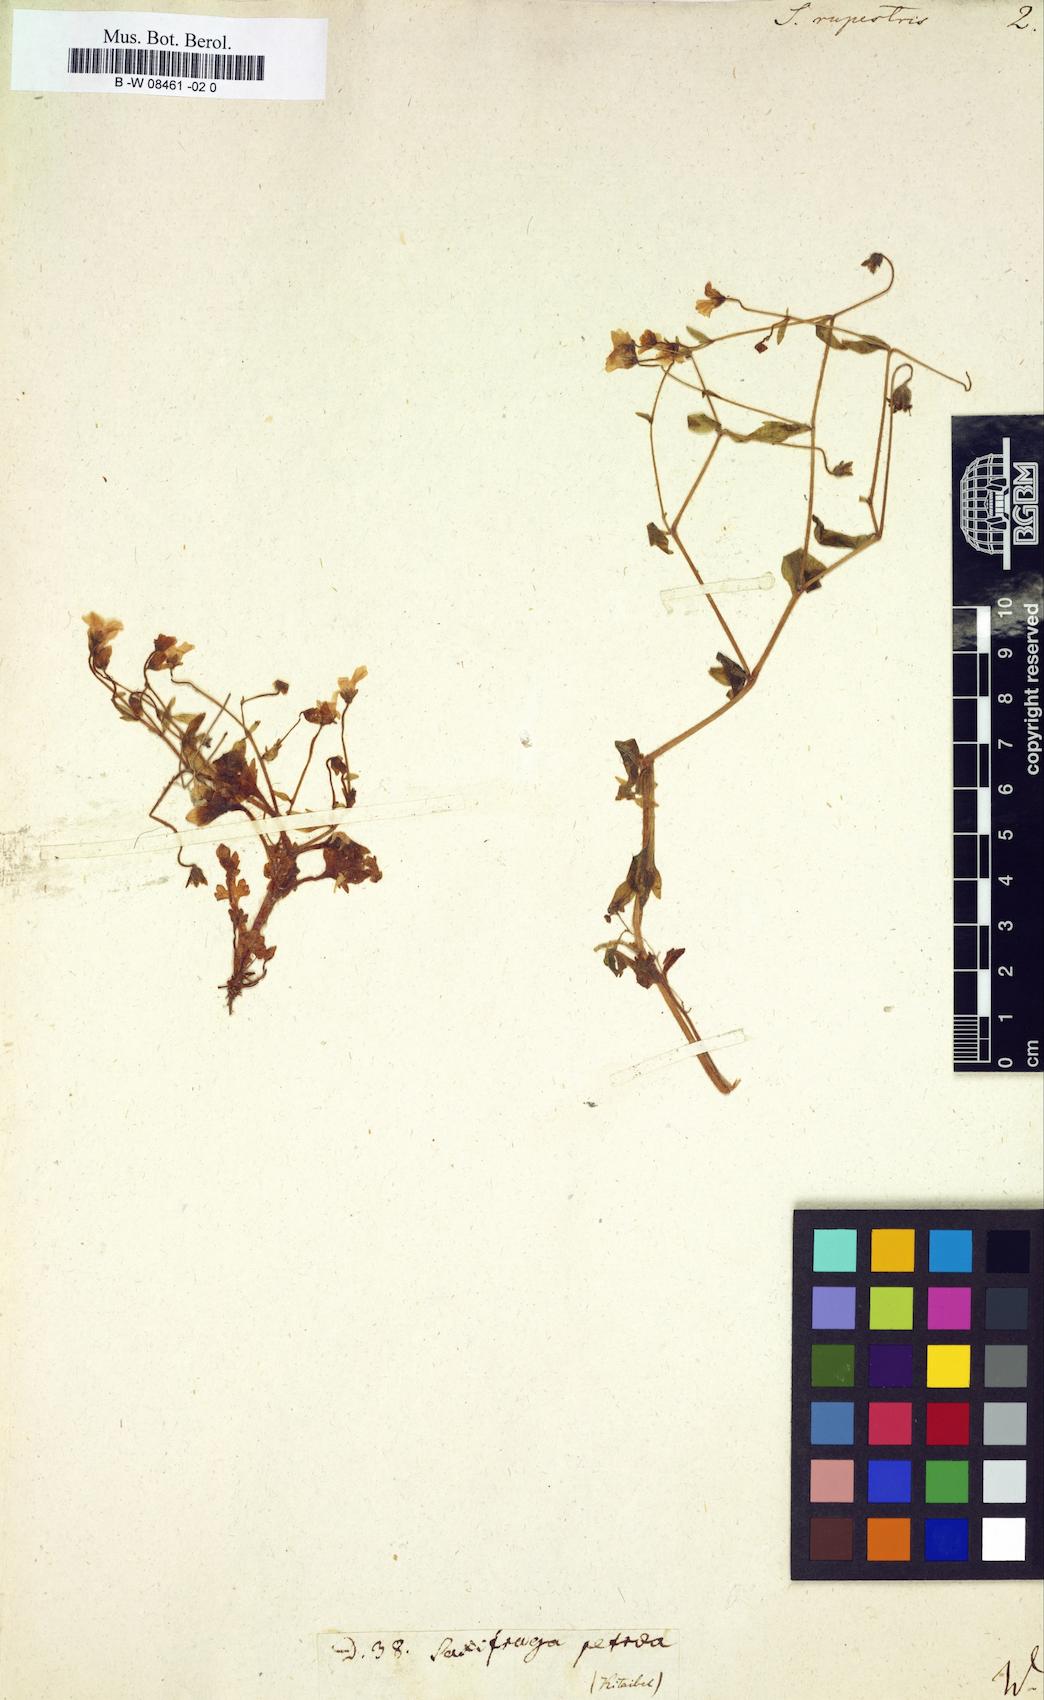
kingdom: Plantae
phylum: Tracheophyta
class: Magnoliopsida
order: Saxifragales
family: Saxifragaceae
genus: Saxifraga
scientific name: Saxifraga
